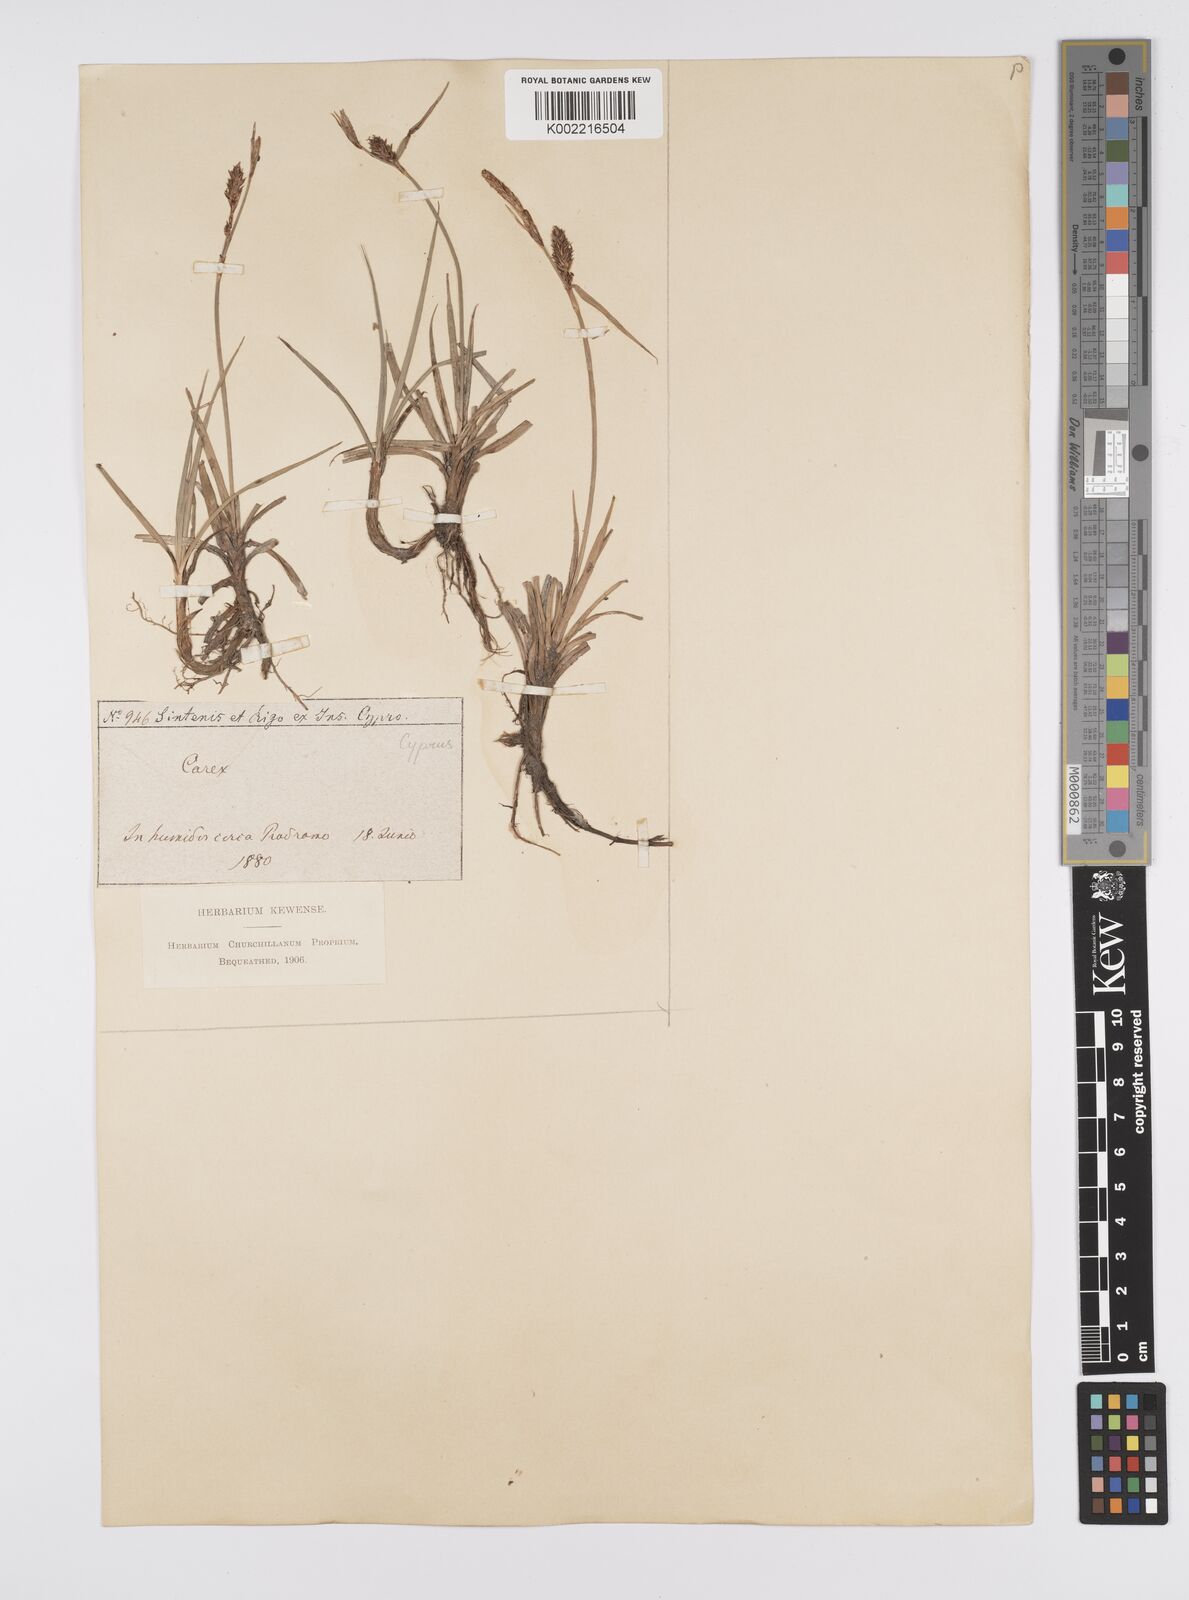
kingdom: Plantae
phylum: Tracheophyta
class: Liliopsida
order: Poales
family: Cyperaceae
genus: Carex
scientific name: Carex flacca
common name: Glaucous sedge
